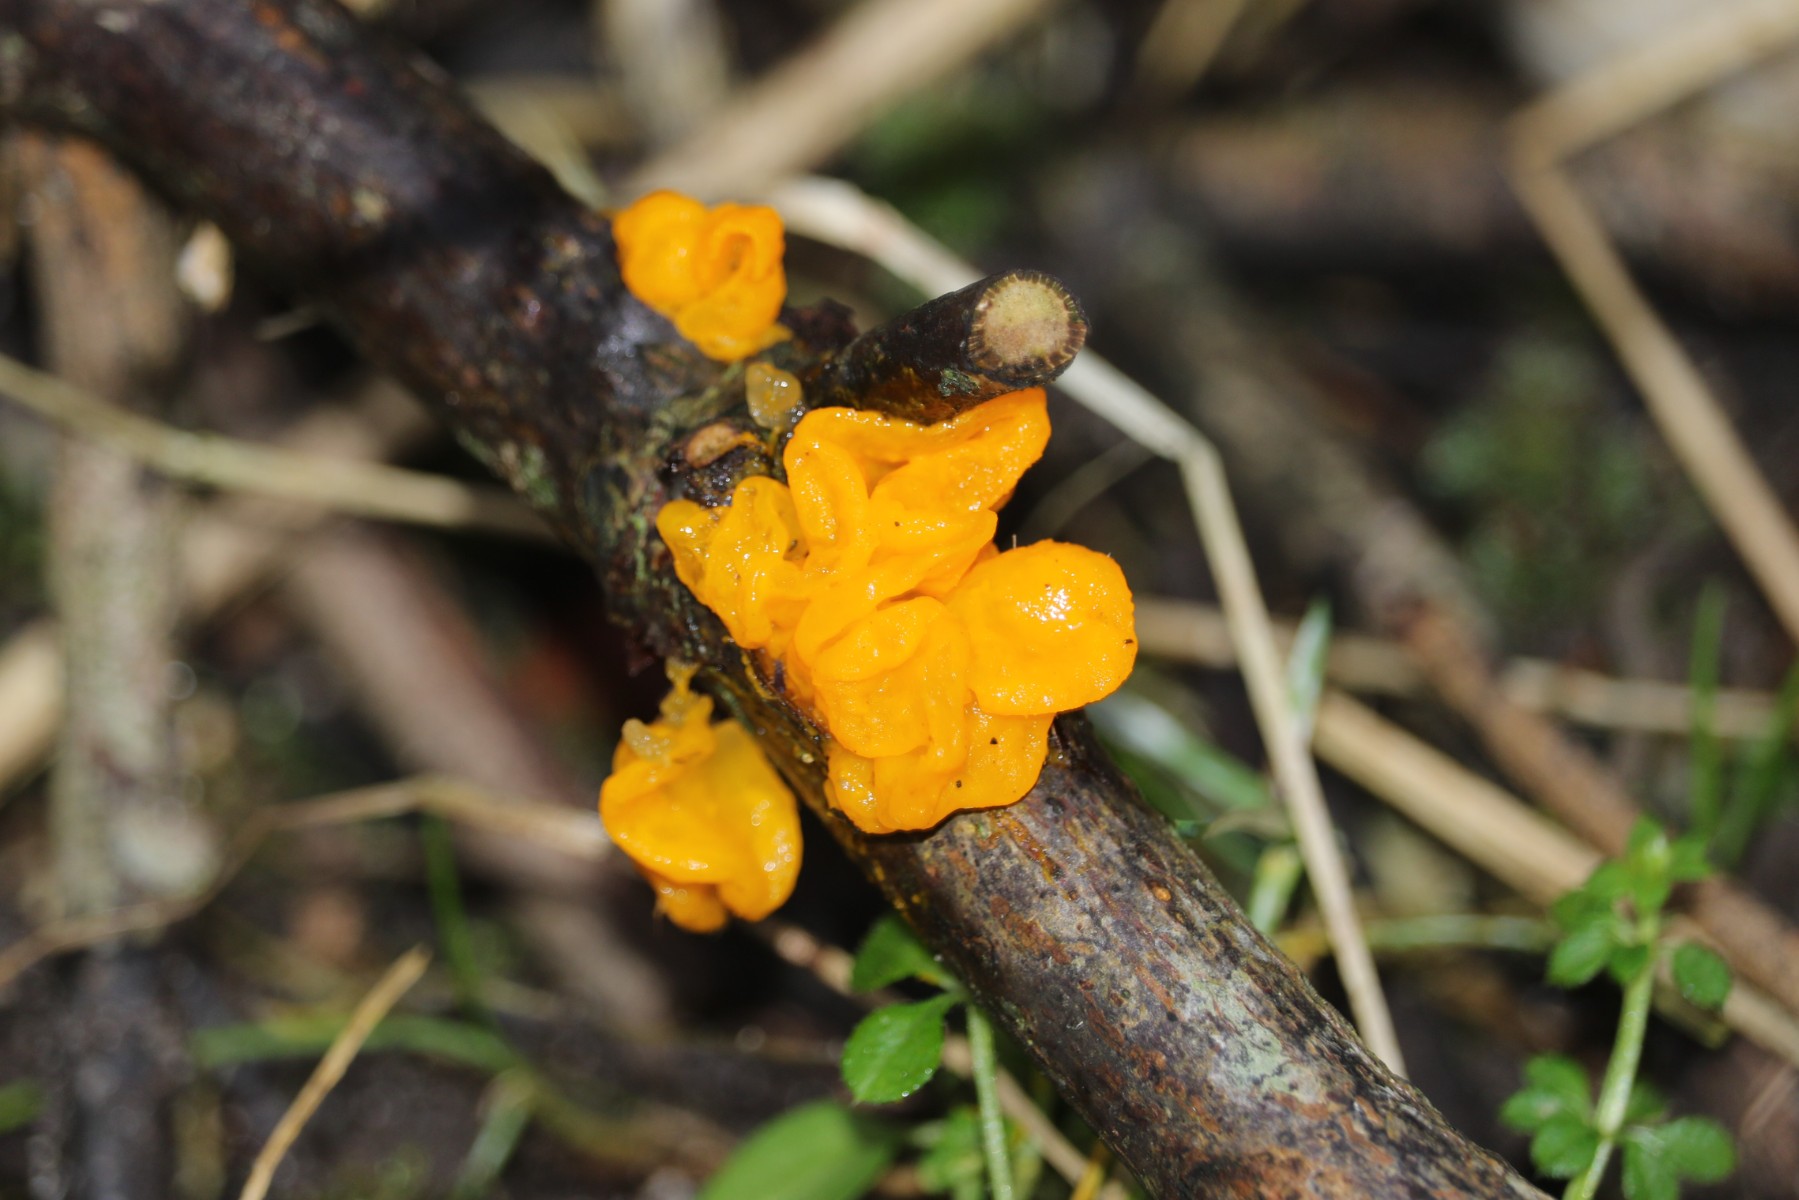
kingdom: Fungi
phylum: Basidiomycota
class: Tremellomycetes
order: Tremellales
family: Tremellaceae
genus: Tremella
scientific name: Tremella mesenterica
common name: gul bævresvamp
